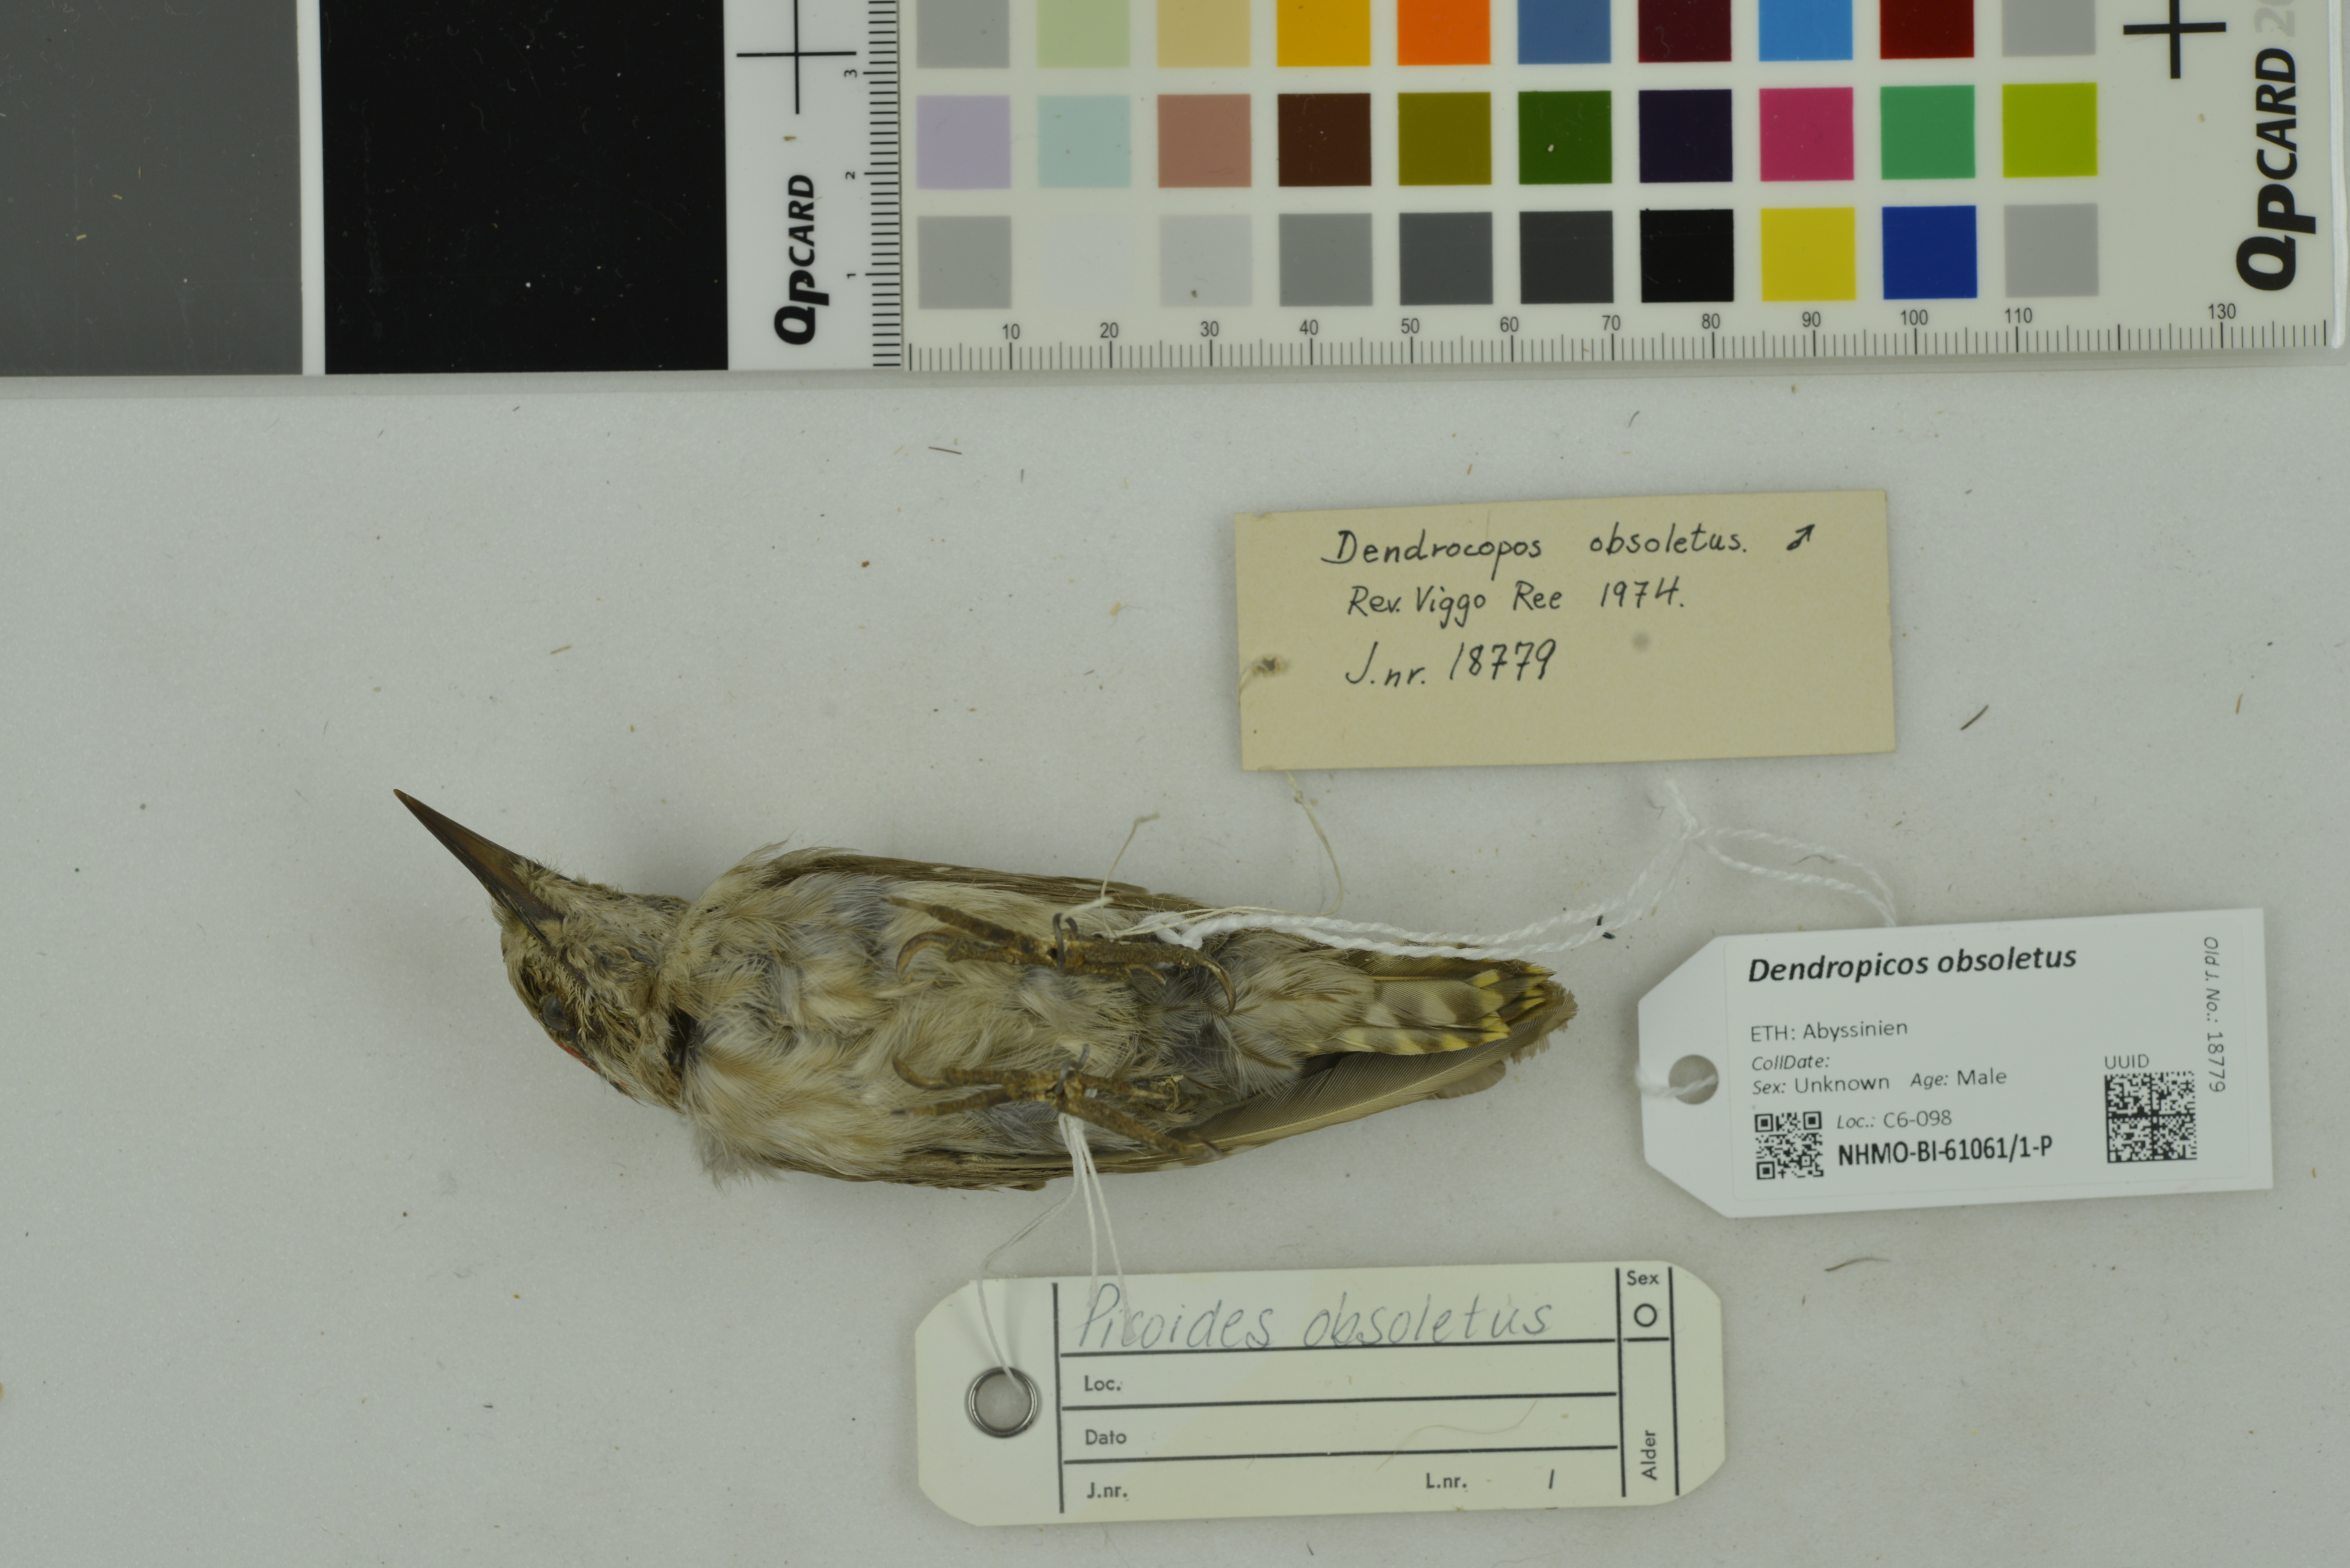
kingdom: Animalia
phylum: Chordata
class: Aves
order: Piciformes
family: Picidae
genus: Dendropicos
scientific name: Dendropicos obsoletus
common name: Brown-backed woodpecker
